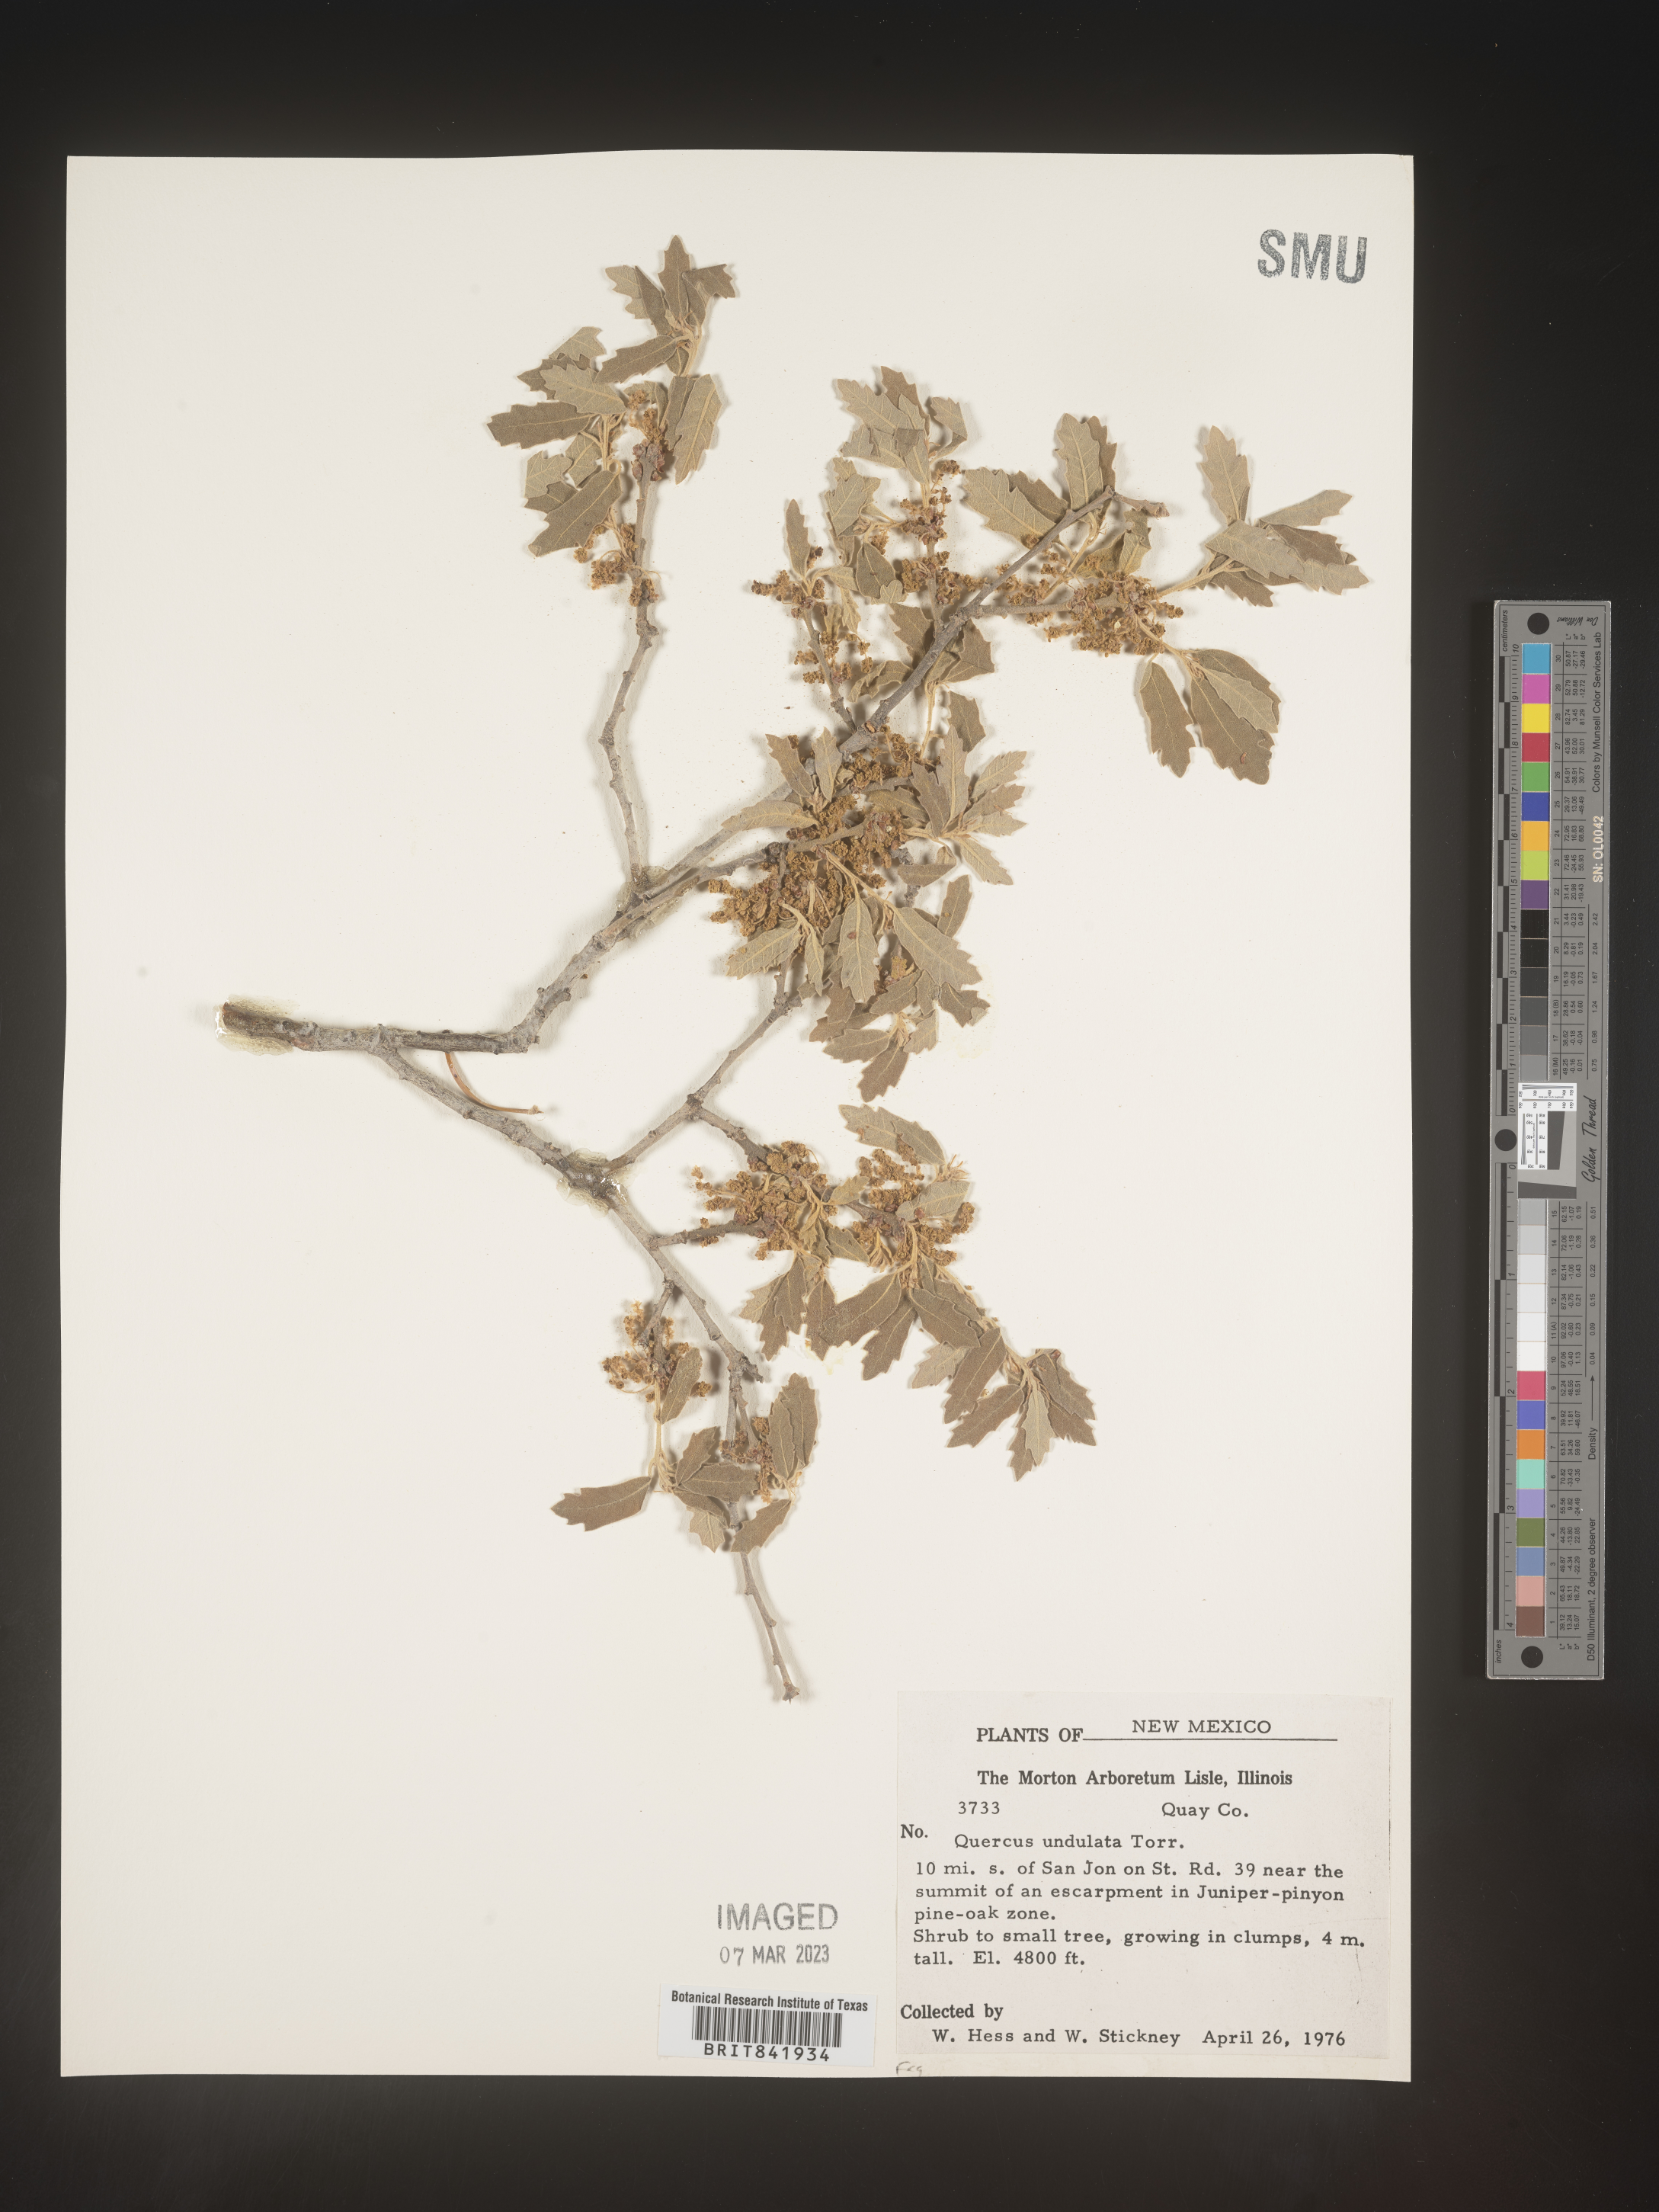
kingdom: Plantae
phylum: Tracheophyta
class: Magnoliopsida
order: Fagales
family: Fagaceae
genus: Quercus
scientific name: Quercus undulata
